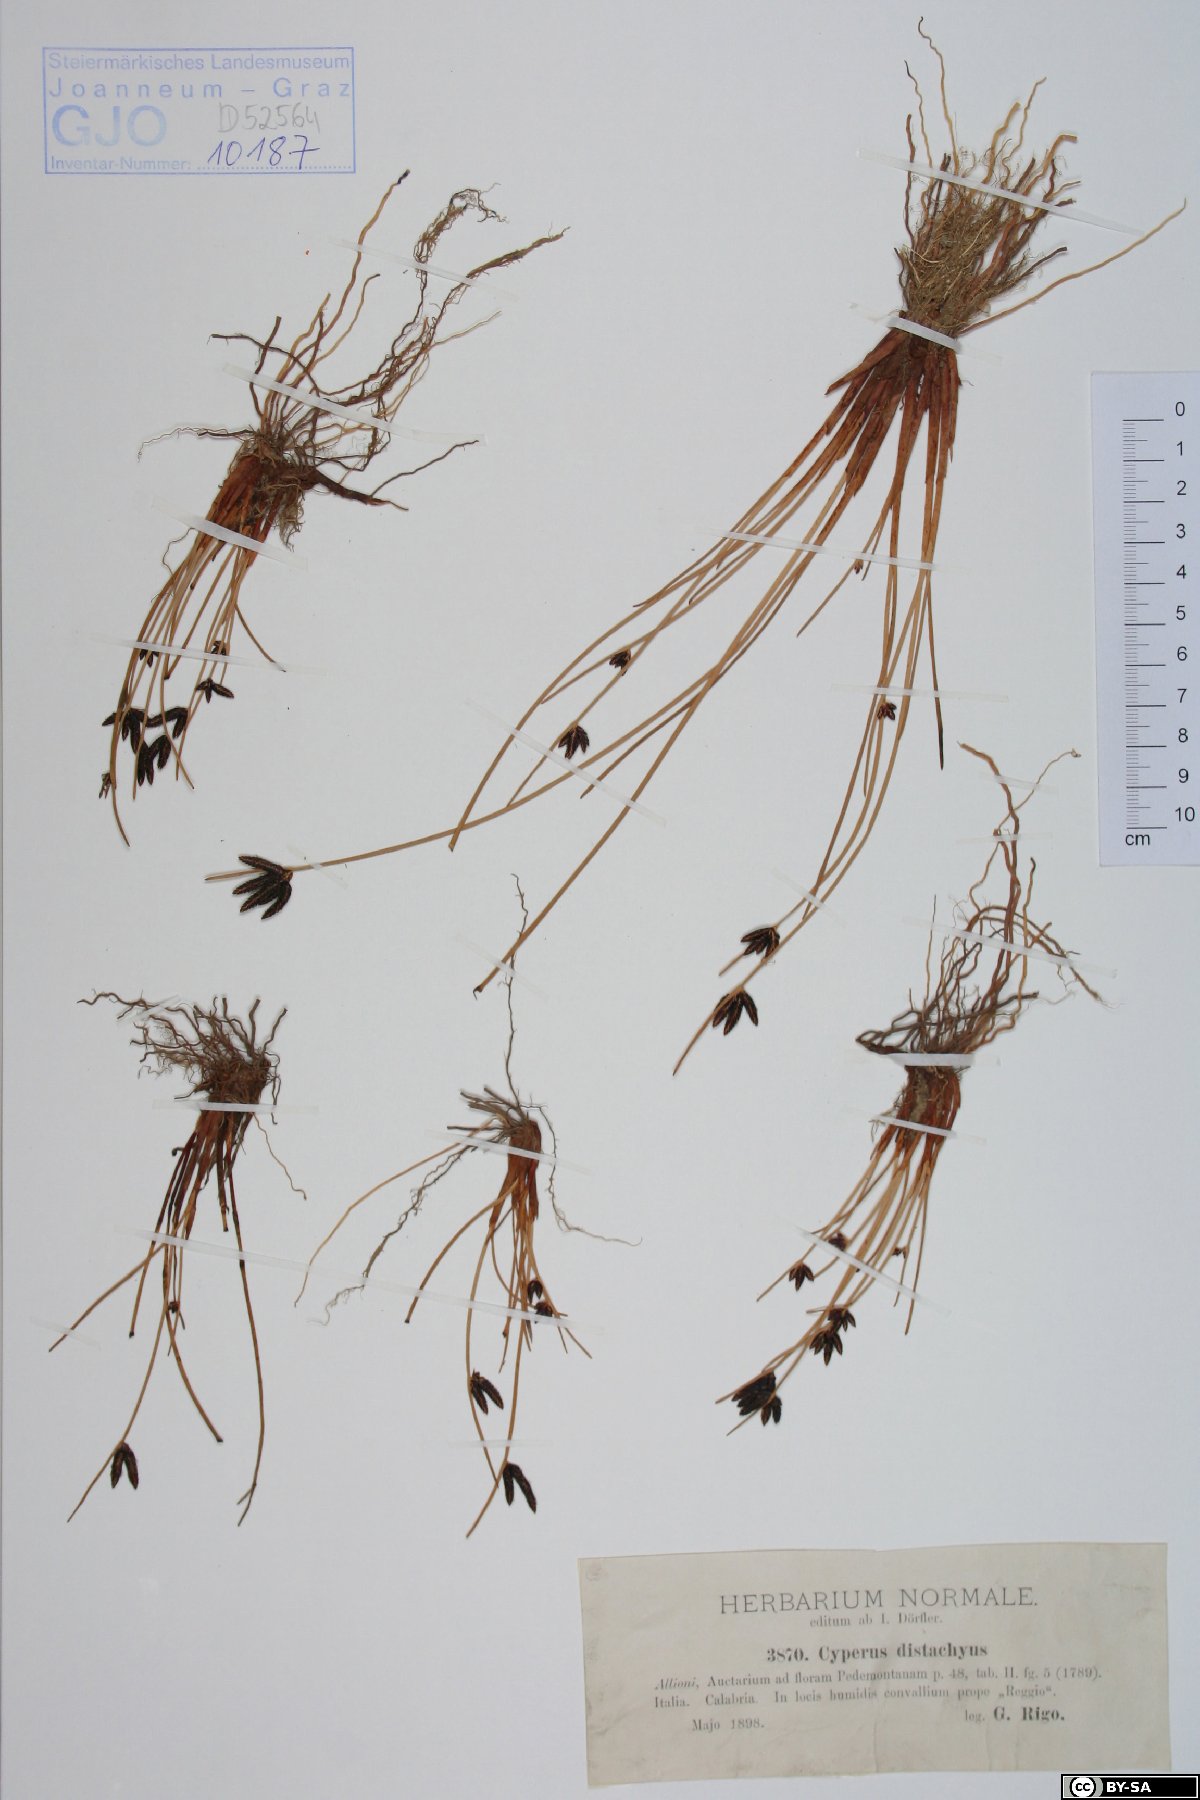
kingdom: Plantae
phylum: Tracheophyta
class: Liliopsida
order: Poales
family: Cyperaceae
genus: Cyperus
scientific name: Cyperus laevigatus
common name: Smooth flat sedge
